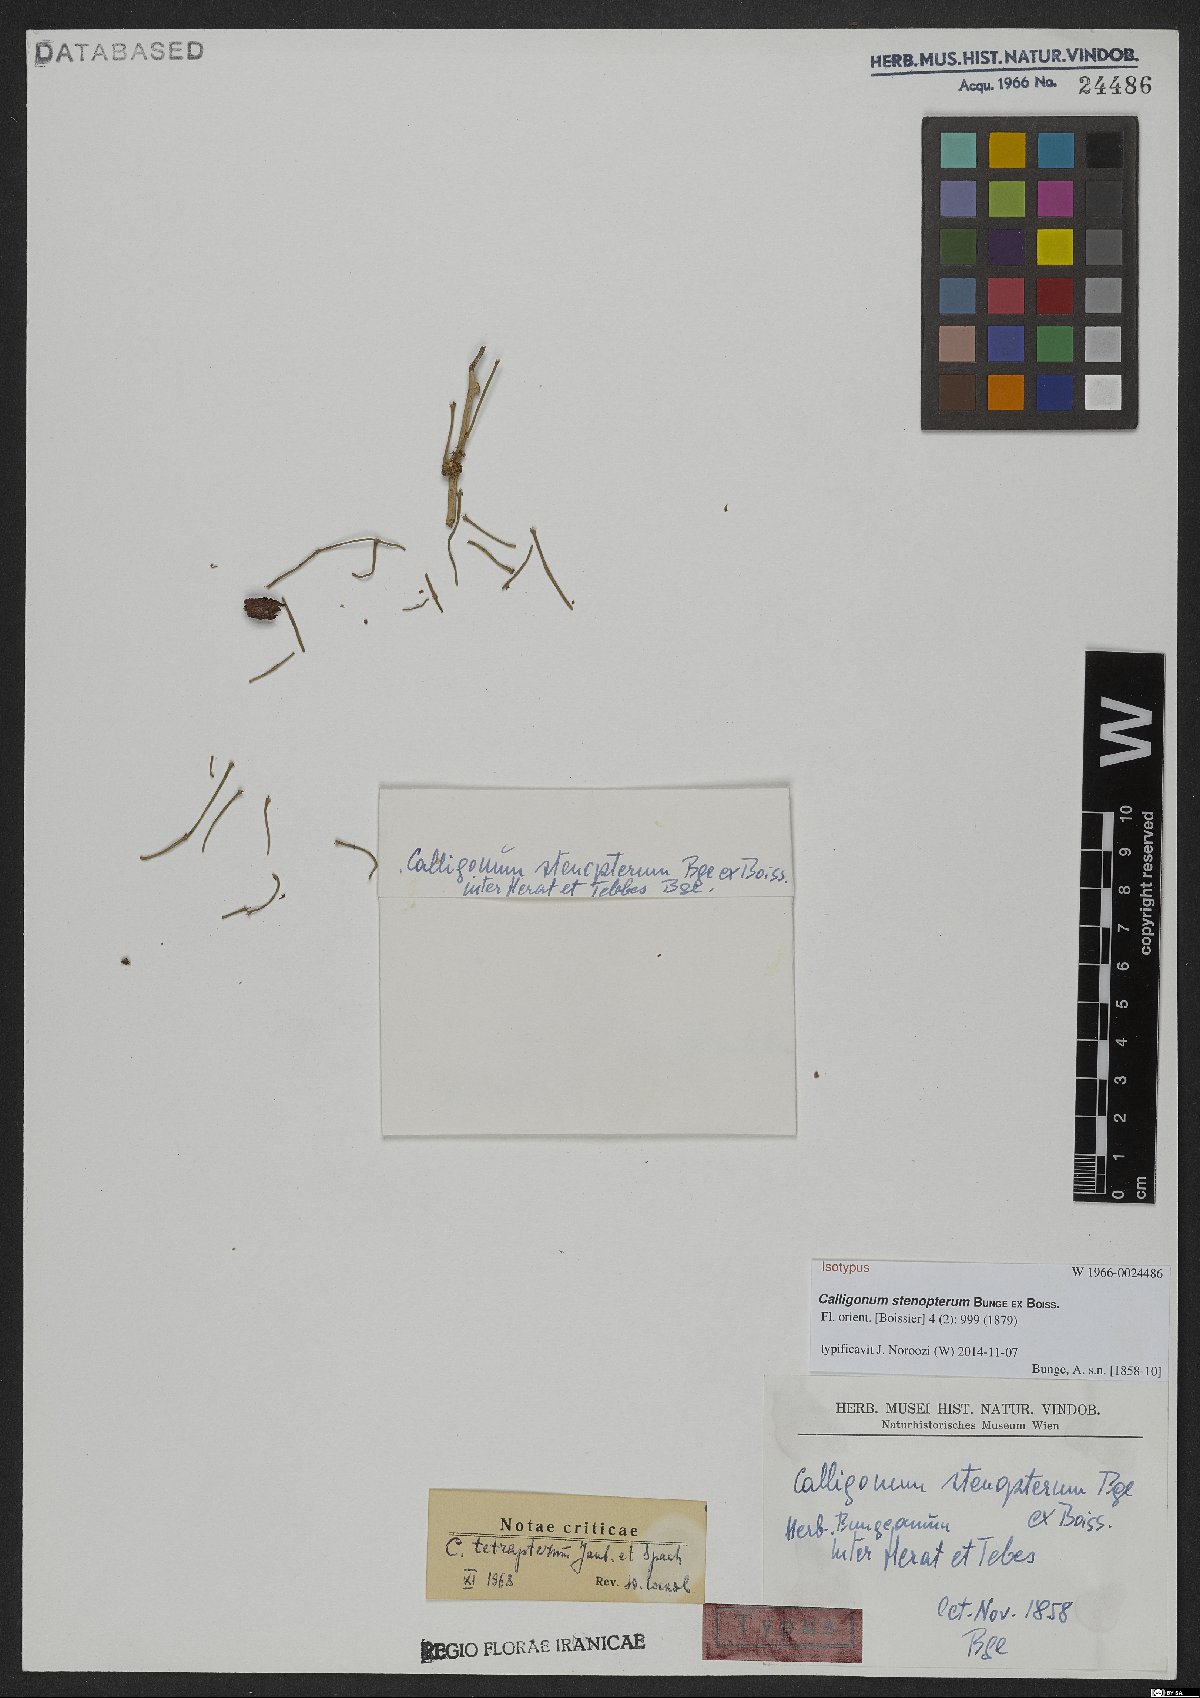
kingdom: Plantae
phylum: Tracheophyta
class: Magnoliopsida
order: Caryophyllales
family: Polygonaceae
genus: Calligonum
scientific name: Calligonum tetrapterum
